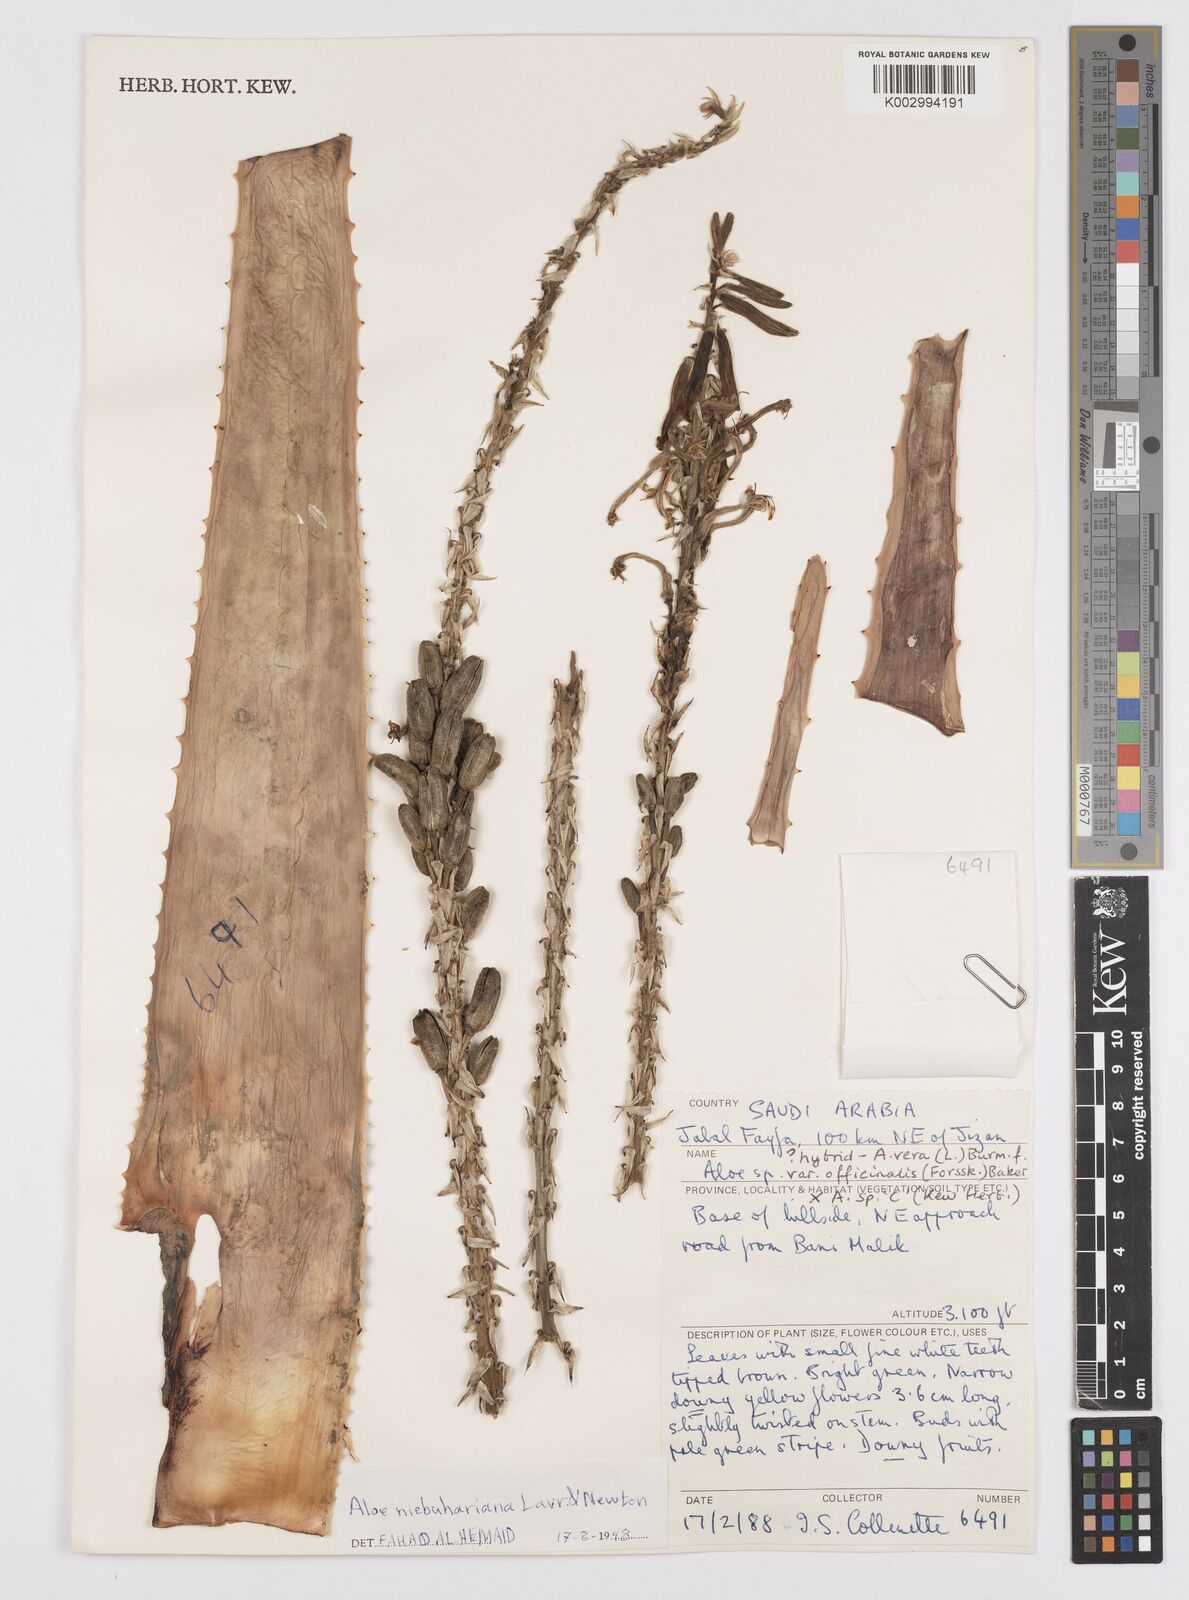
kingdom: Plantae
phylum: Tracheophyta
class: Liliopsida
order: Asparagales
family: Asphodelaceae
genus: Aloe
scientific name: Aloe niebuhriana
